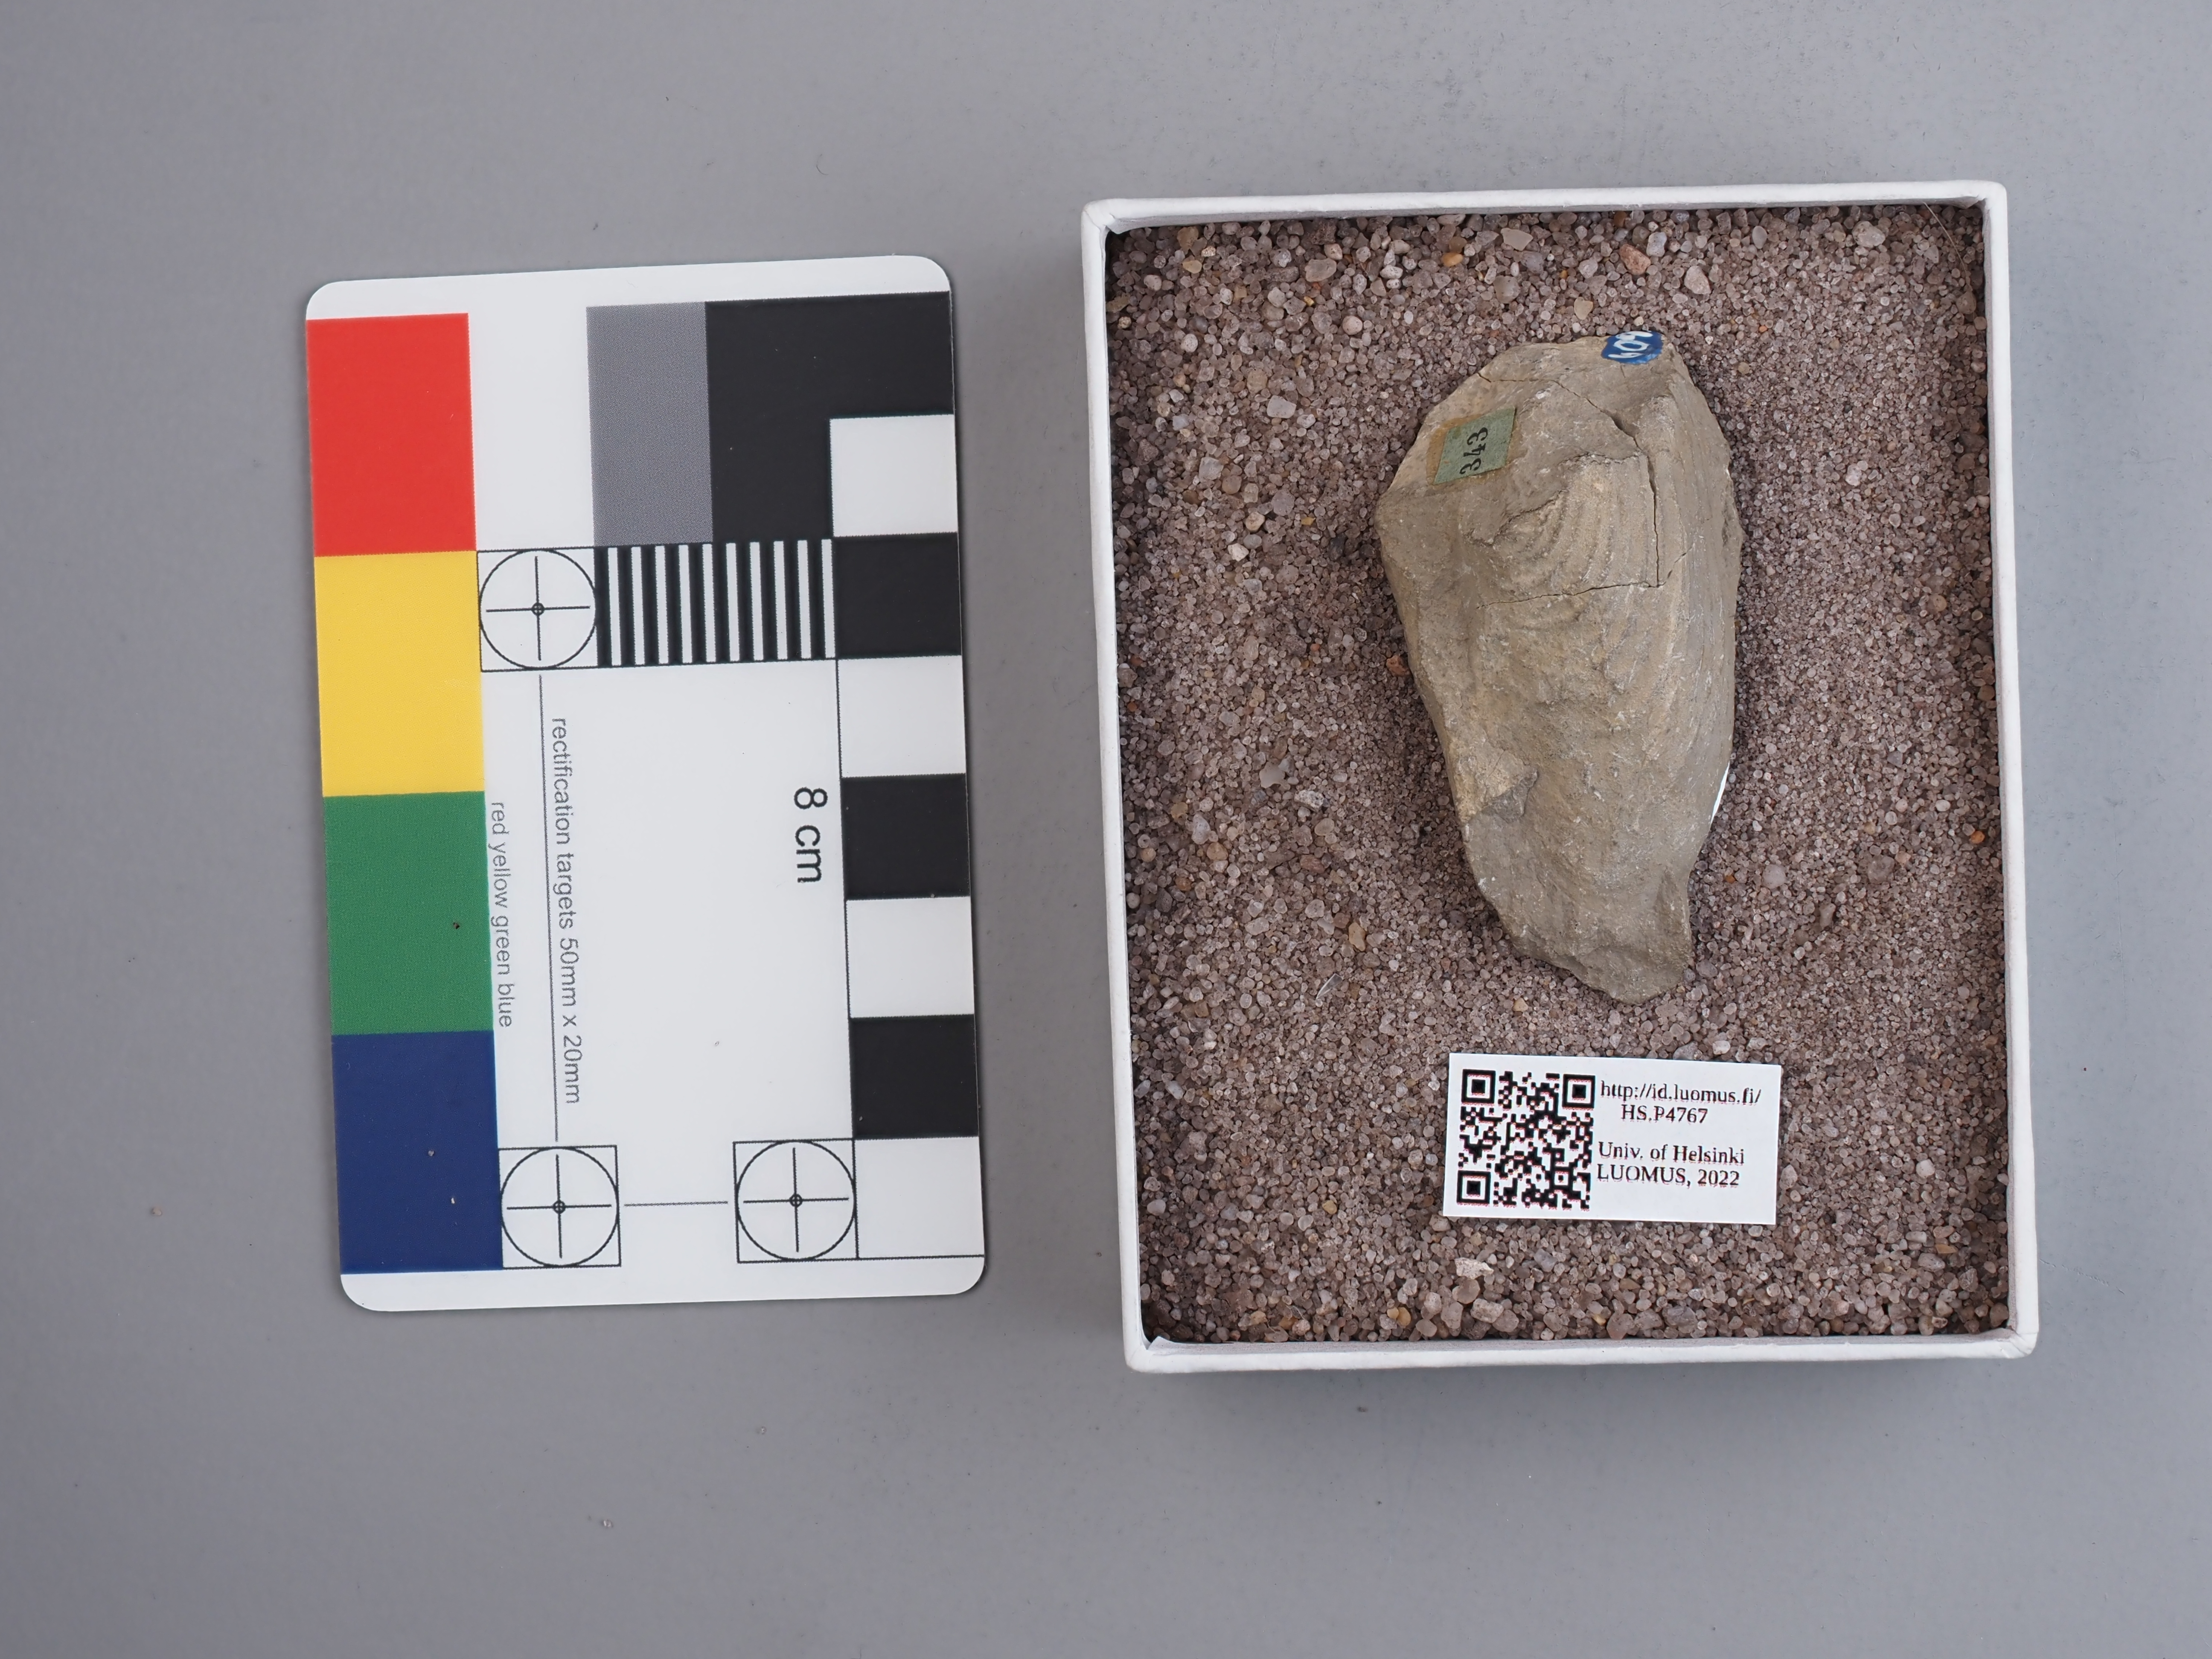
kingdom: Animalia
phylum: Mollusca
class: Bivalvia
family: Pholadomyidae
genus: Allorisma
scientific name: Allorisma
